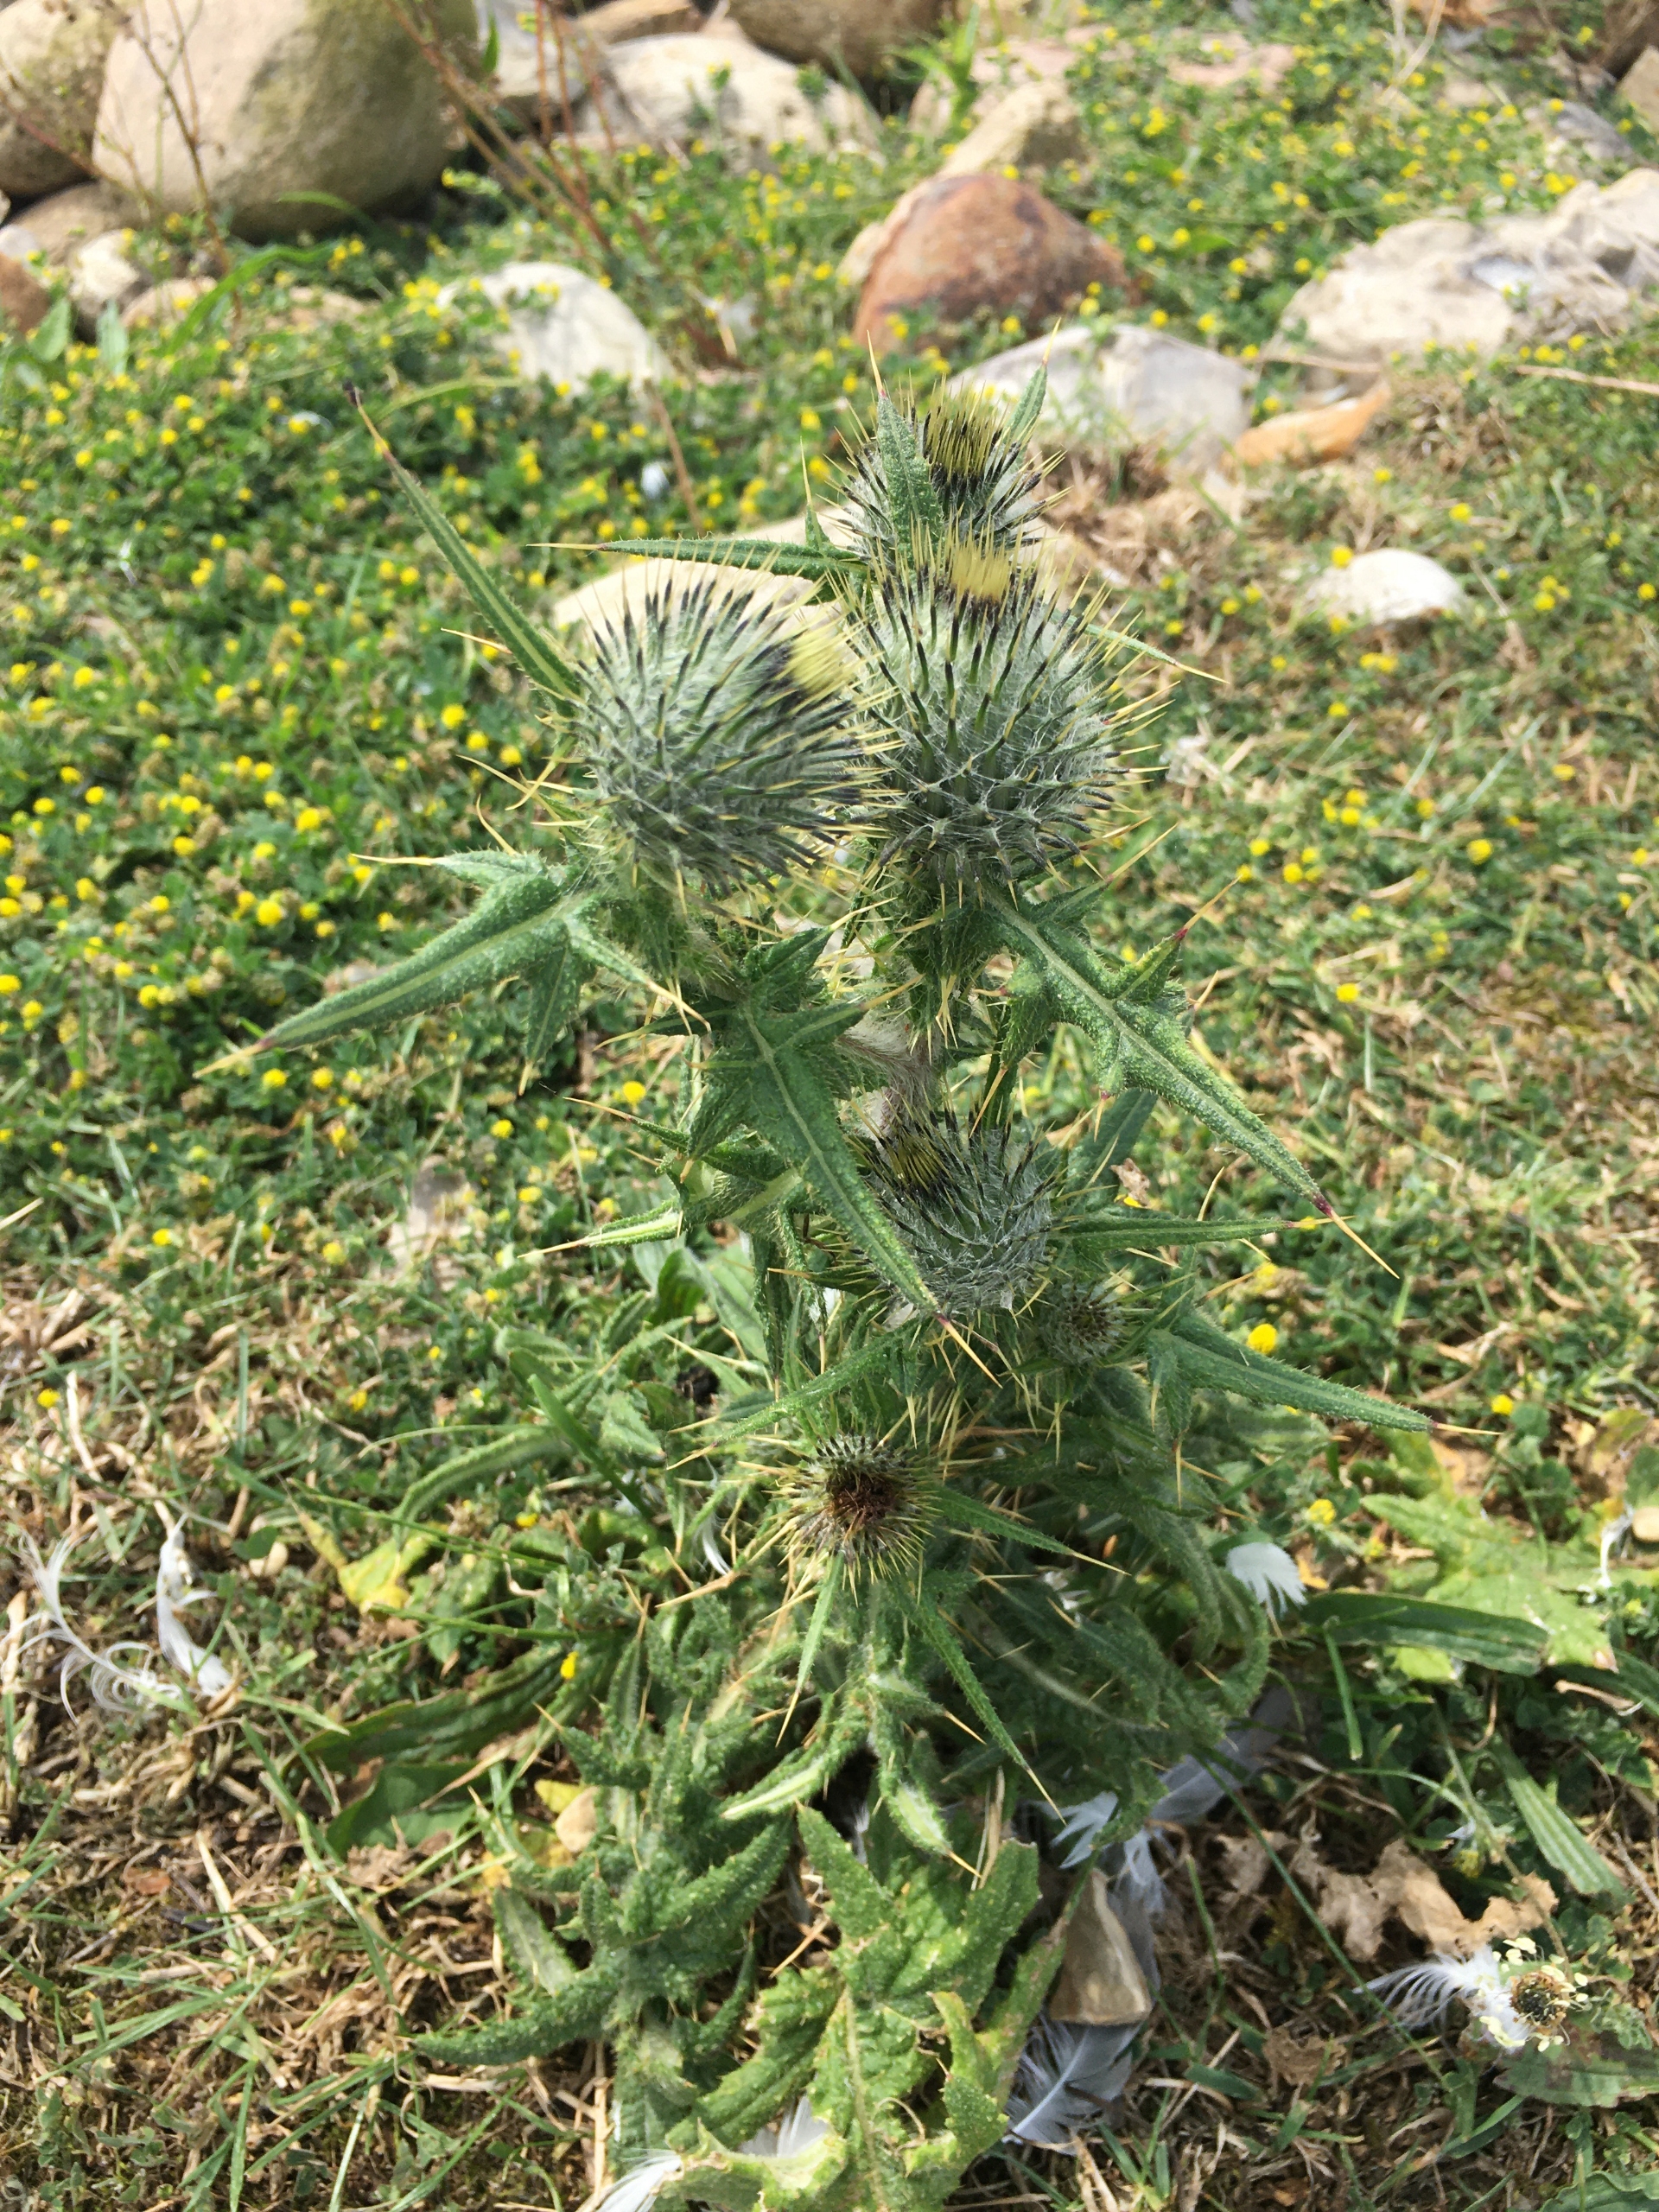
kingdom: Plantae
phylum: Tracheophyta
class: Magnoliopsida
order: Asterales
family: Asteraceae
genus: Cirsium
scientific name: Cirsium vulgare
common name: Horse-tidsel
